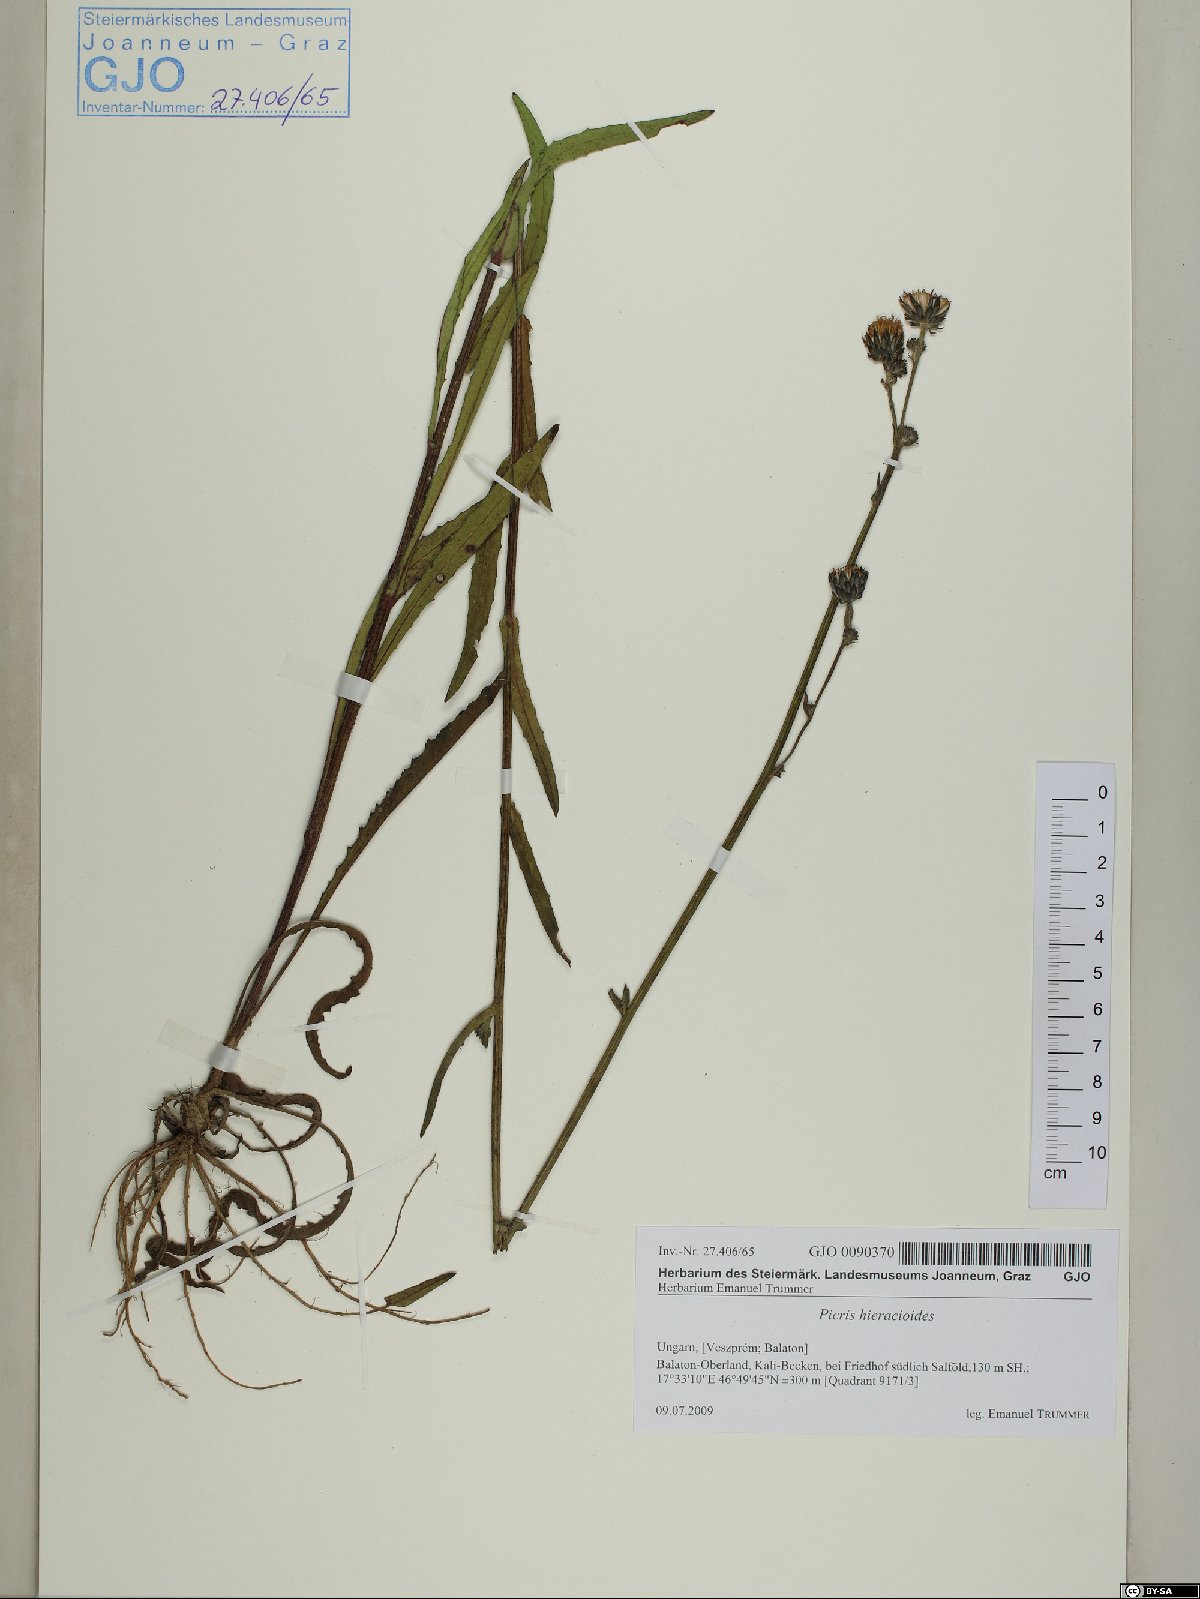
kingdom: Plantae
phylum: Tracheophyta
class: Magnoliopsida
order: Asterales
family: Asteraceae
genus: Picris
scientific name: Picris hieracioides
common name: Hawkweed oxtongue
